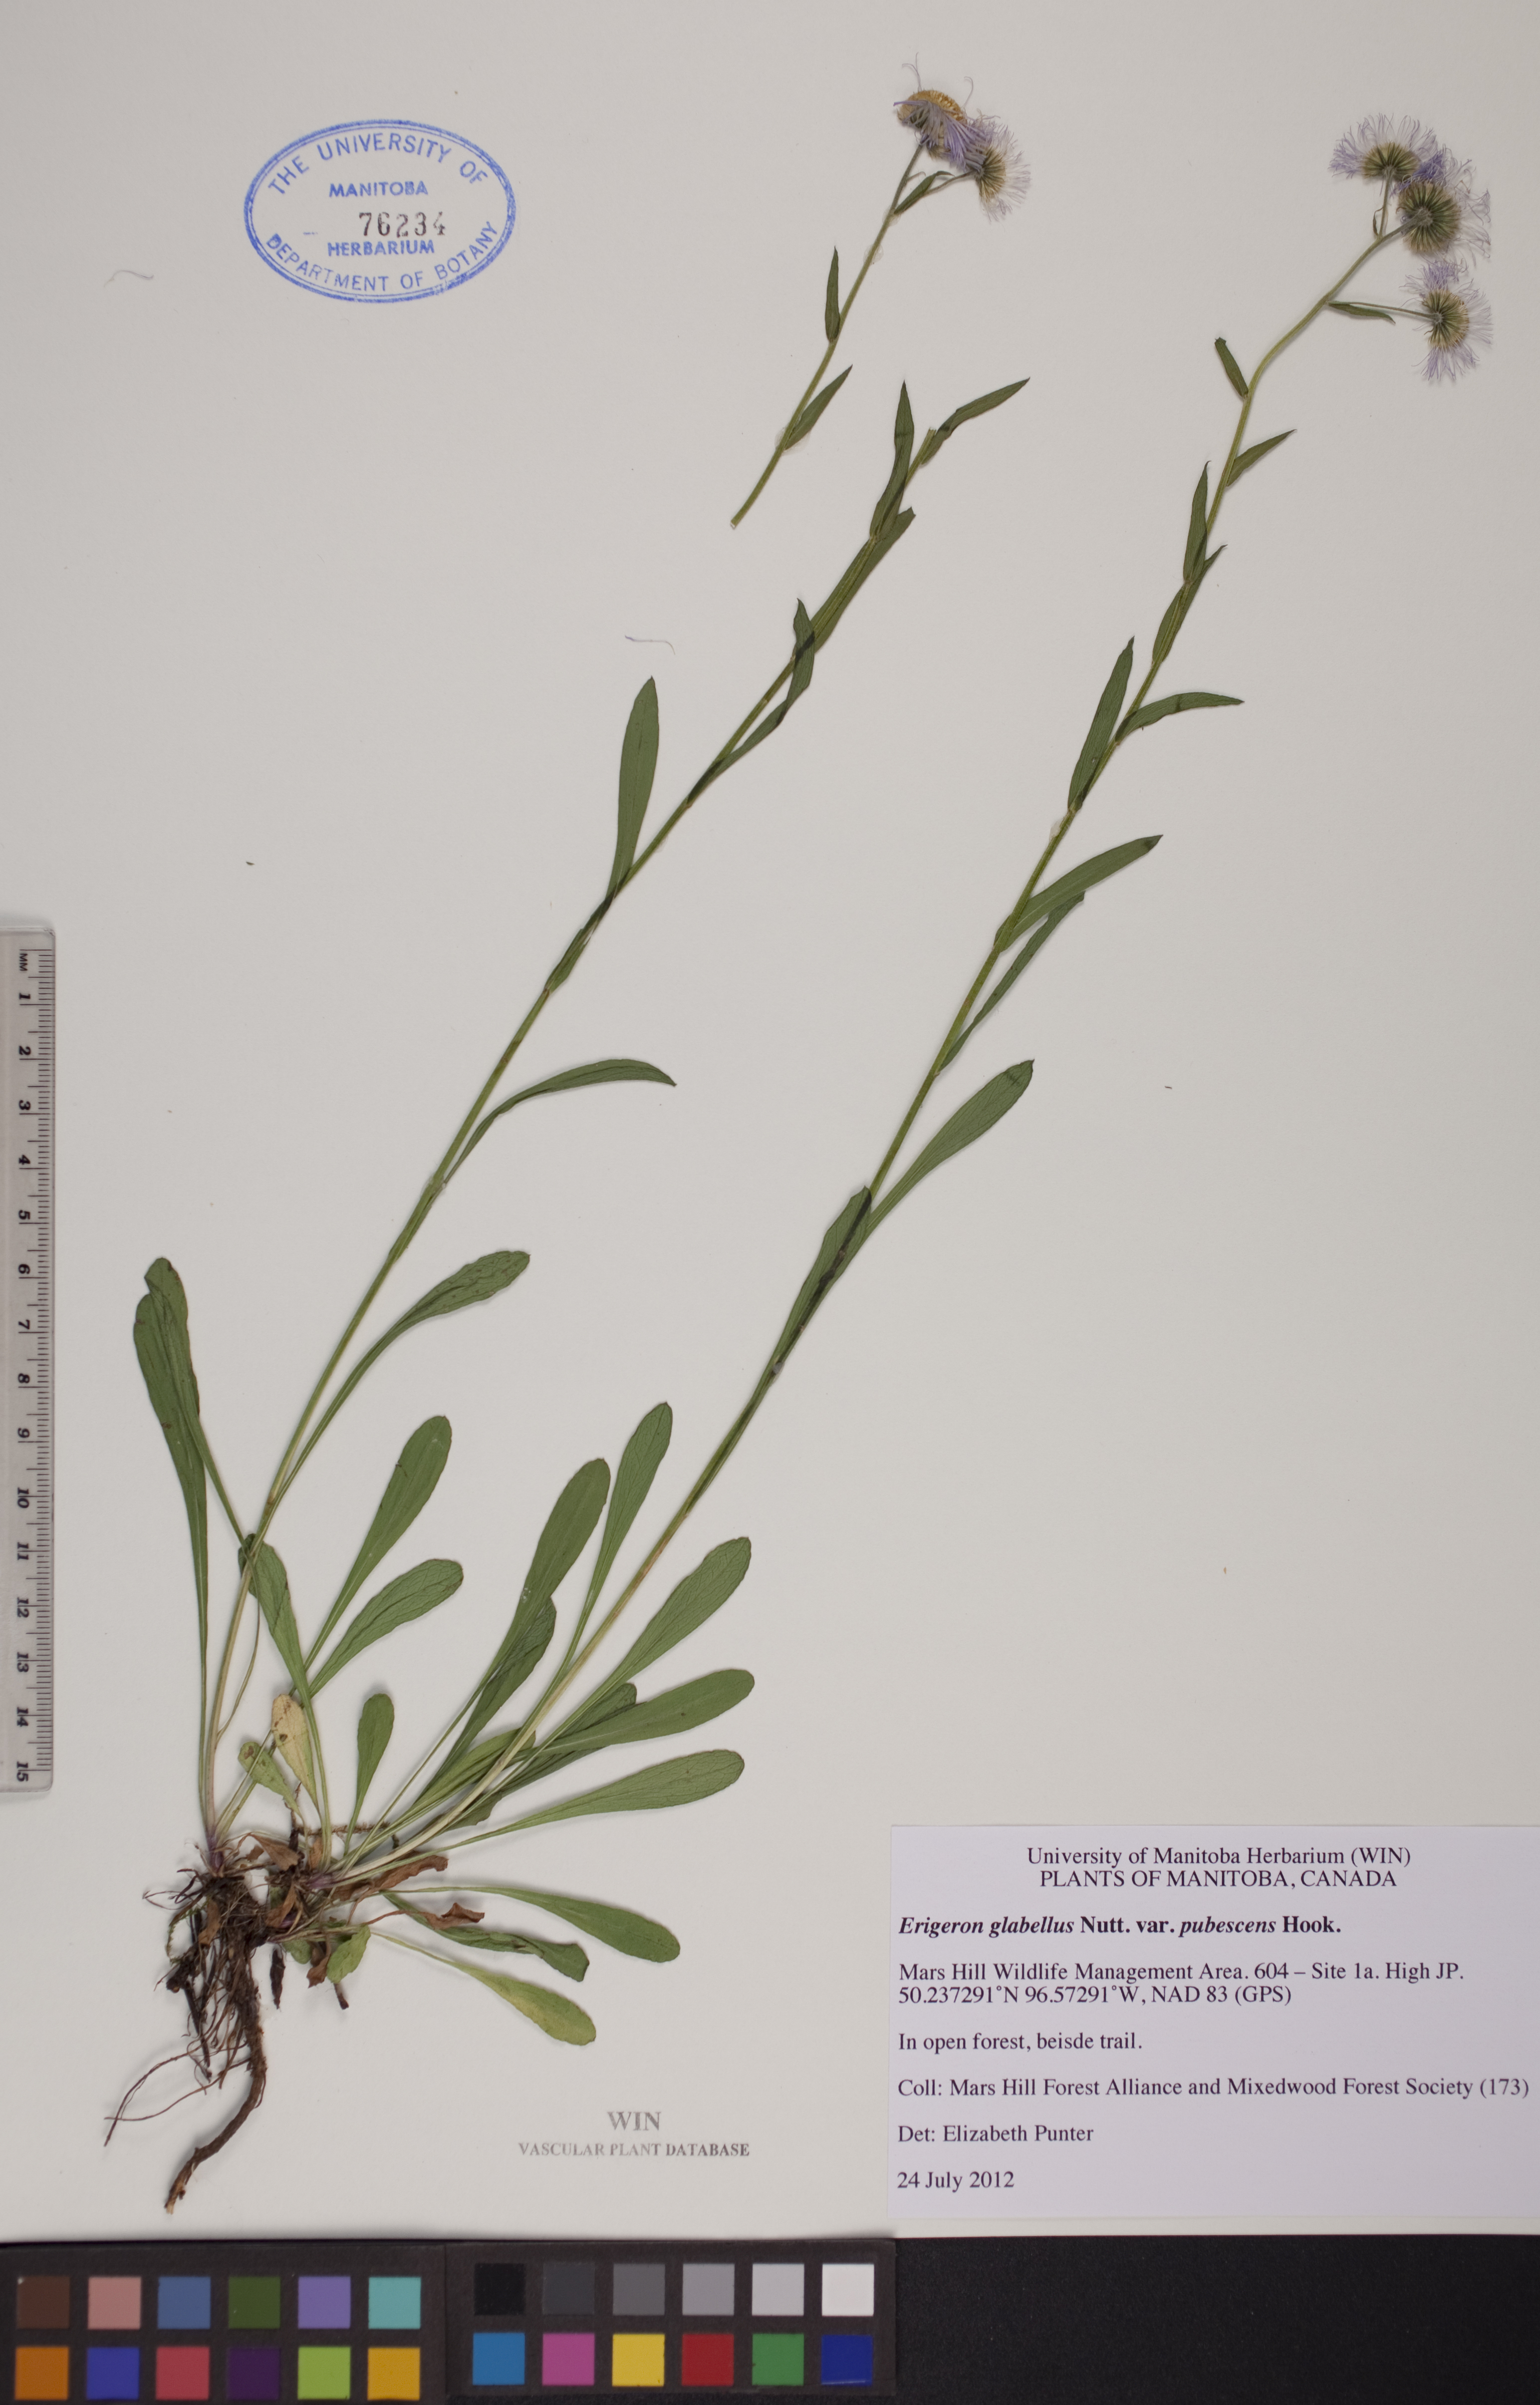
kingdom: Plantae
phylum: Tracheophyta
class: Magnoliopsida
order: Asterales
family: Asteraceae
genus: Erigeron
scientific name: Erigeron glabellus
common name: Smooth fleabane
